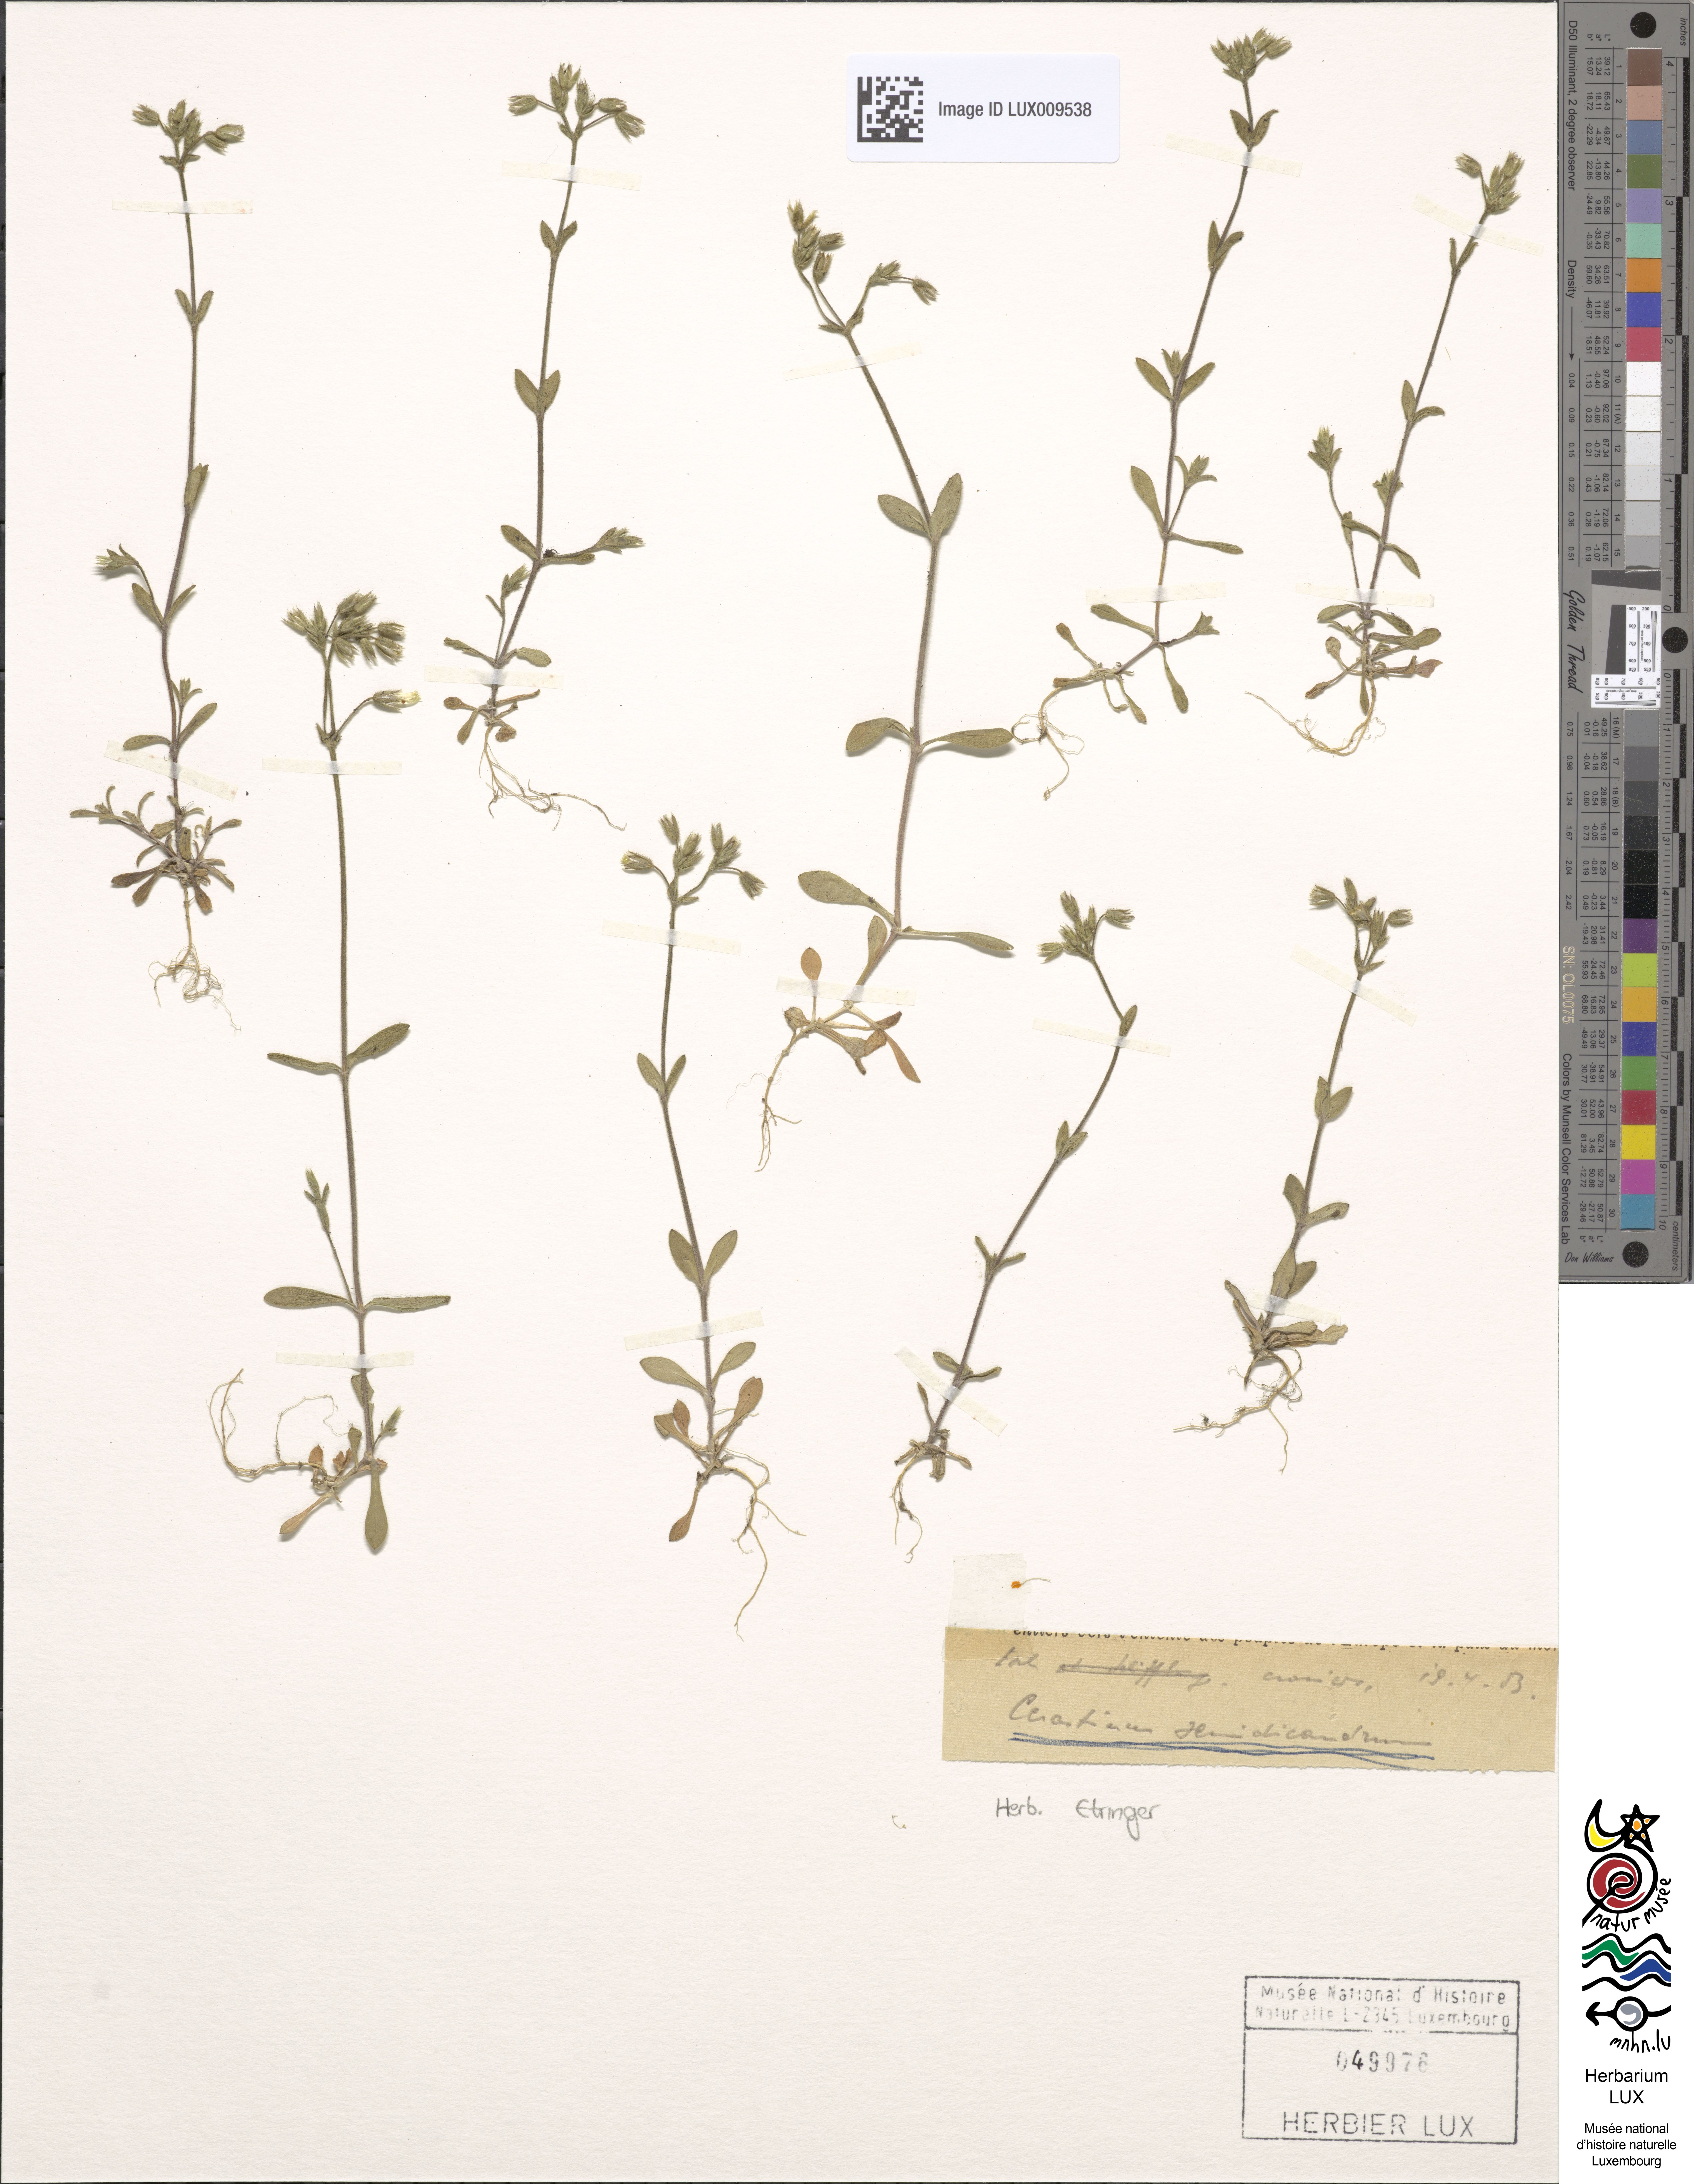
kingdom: Plantae
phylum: Tracheophyta
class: Magnoliopsida
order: Caryophyllales
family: Caryophyllaceae
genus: Cerastium
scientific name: Cerastium semidecandrum
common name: Little mouse-ear
